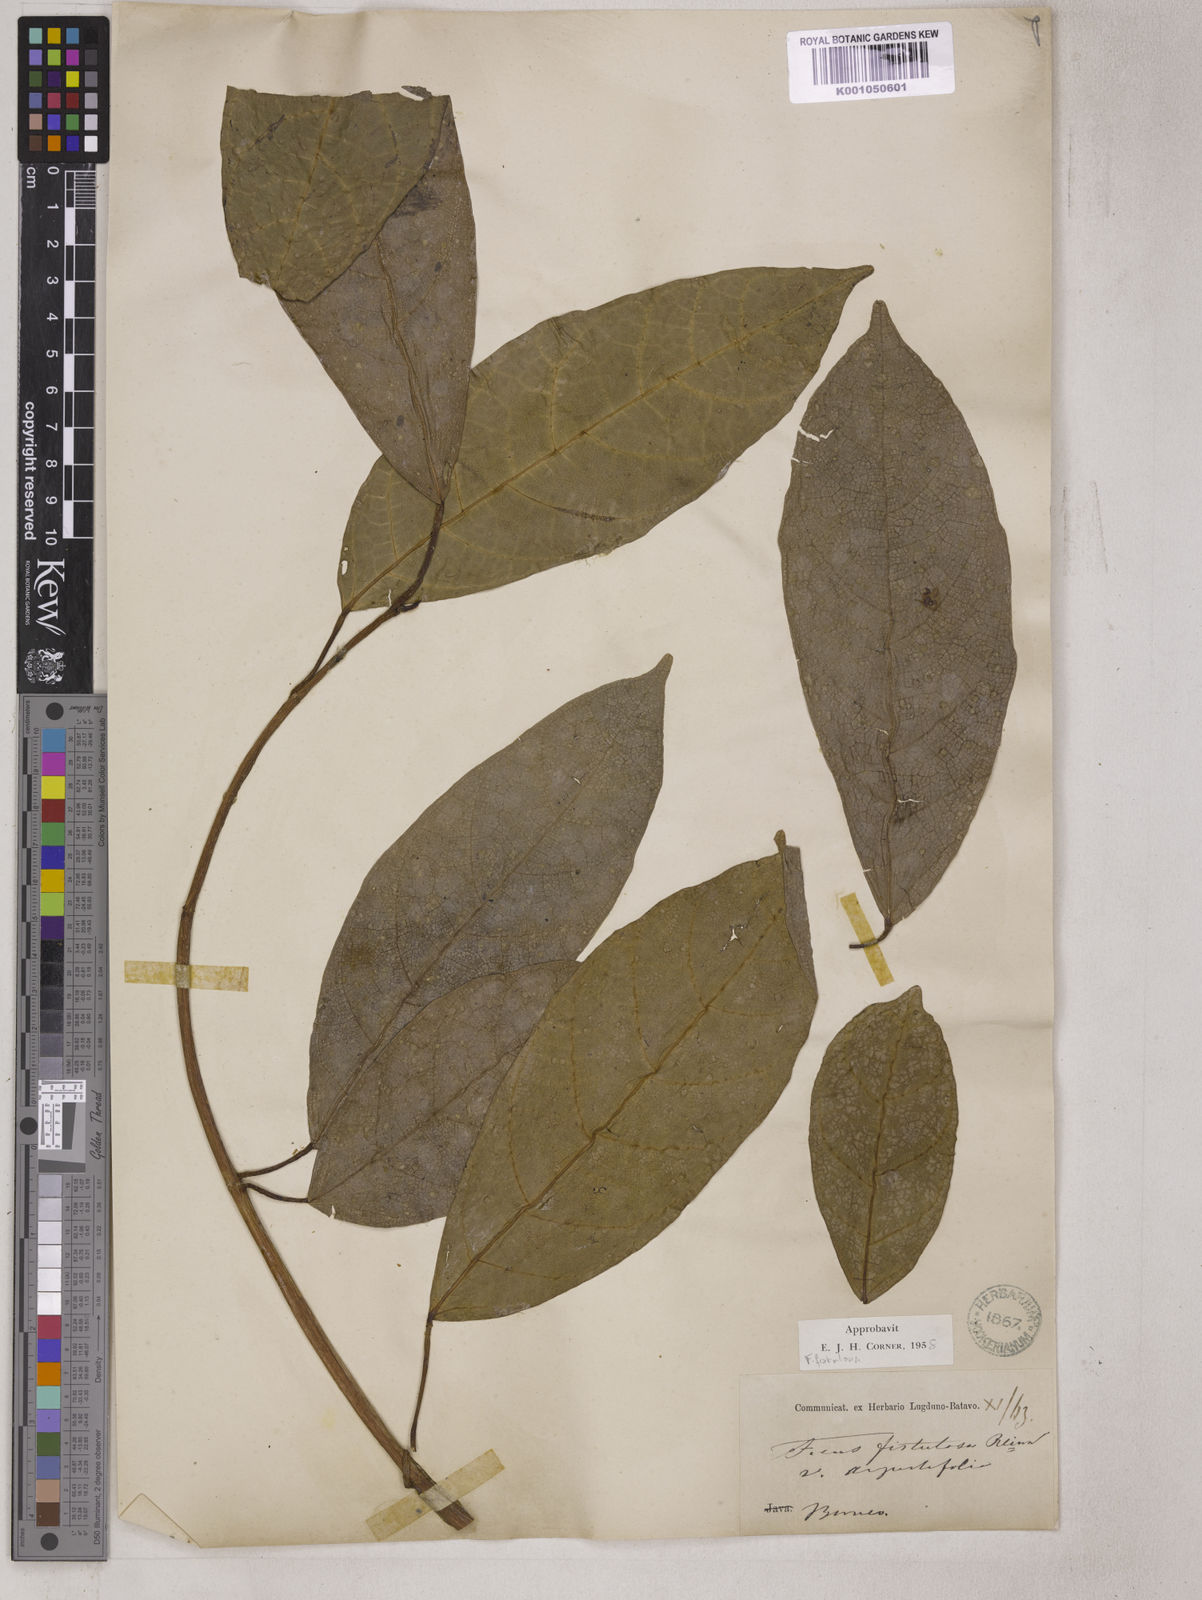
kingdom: Plantae
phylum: Tracheophyta
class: Magnoliopsida
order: Rosales
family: Moraceae
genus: Ficus
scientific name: Ficus fistulosa
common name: Figs
